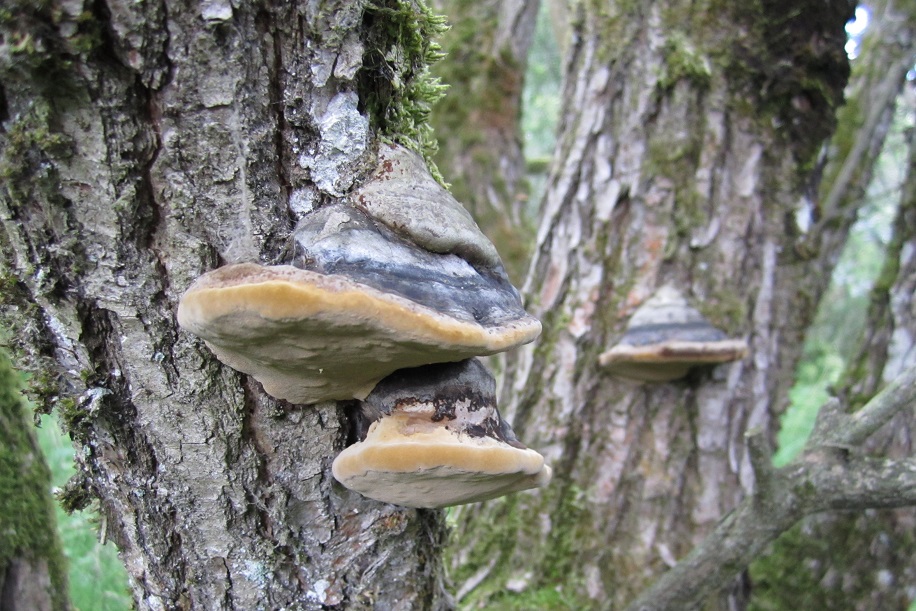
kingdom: Fungi
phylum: Basidiomycota
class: Agaricomycetes
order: Hymenochaetales
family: Hymenochaetaceae
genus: Phellinus
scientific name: Phellinus igniarius
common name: almindelig ildporesvamp
